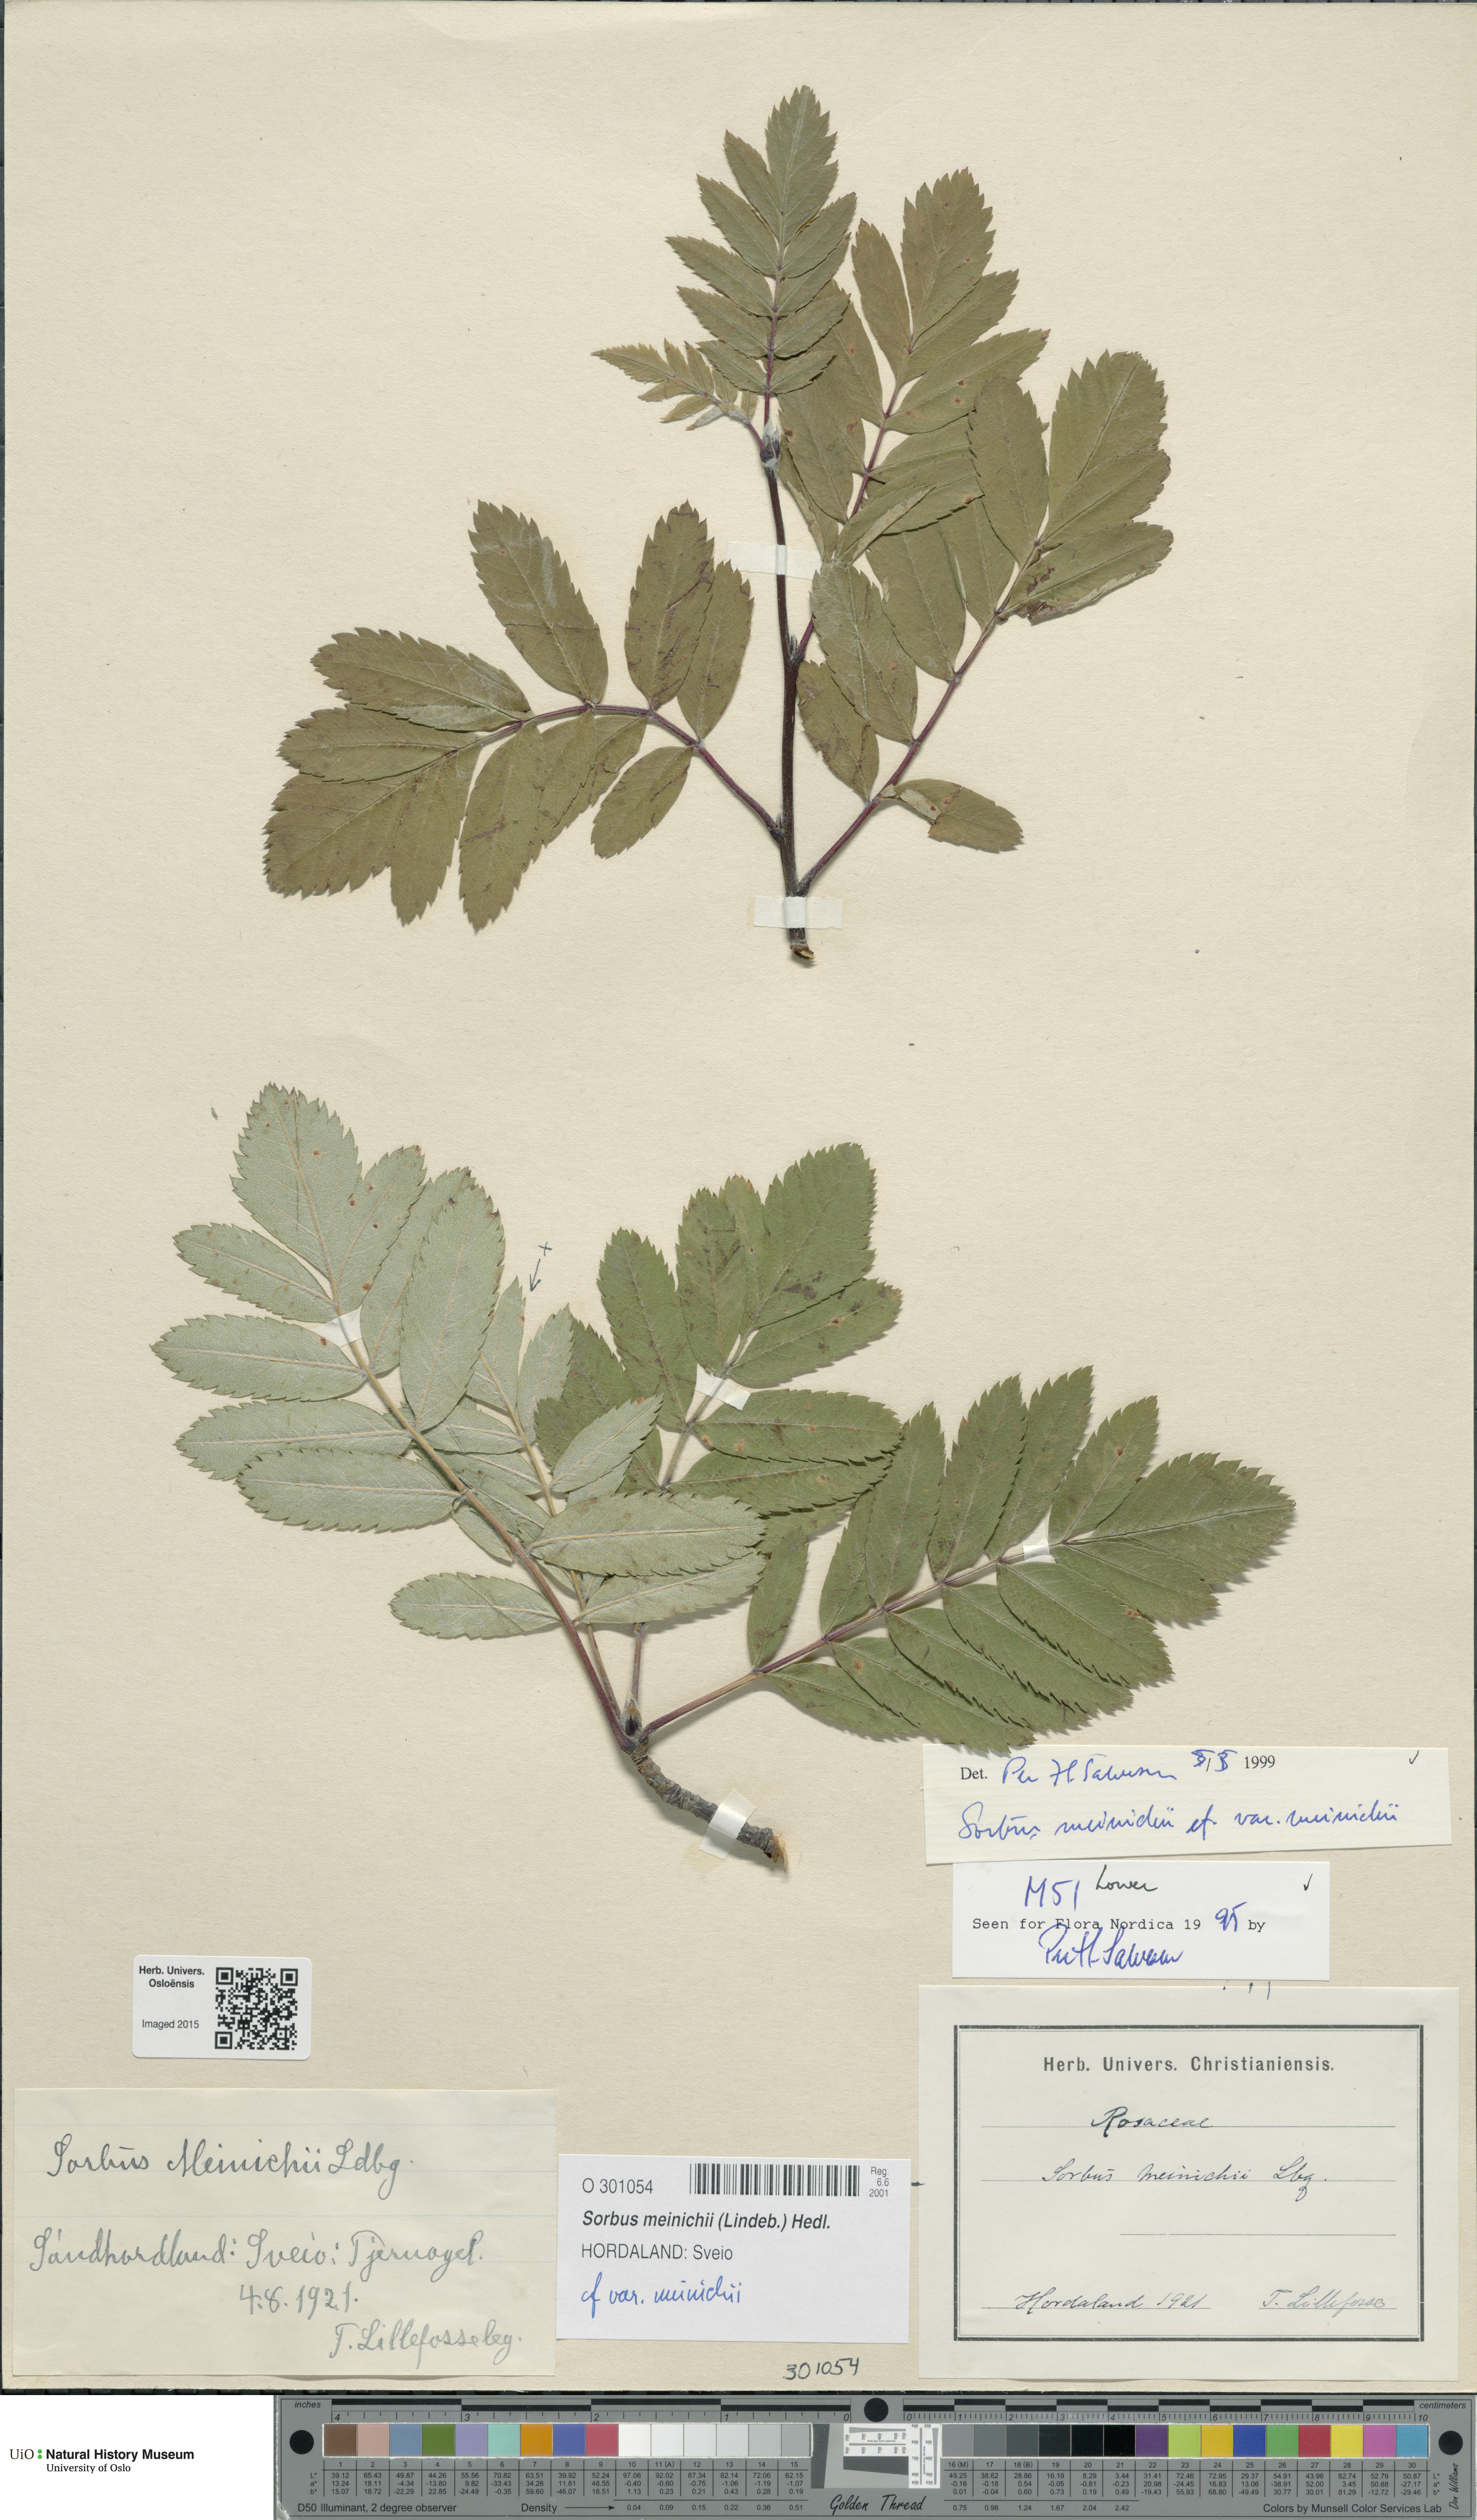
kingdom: Plantae
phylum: Tracheophyta
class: Magnoliopsida
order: Rosales
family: Rosaceae
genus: Hedlundia
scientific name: Hedlundia meinichii
